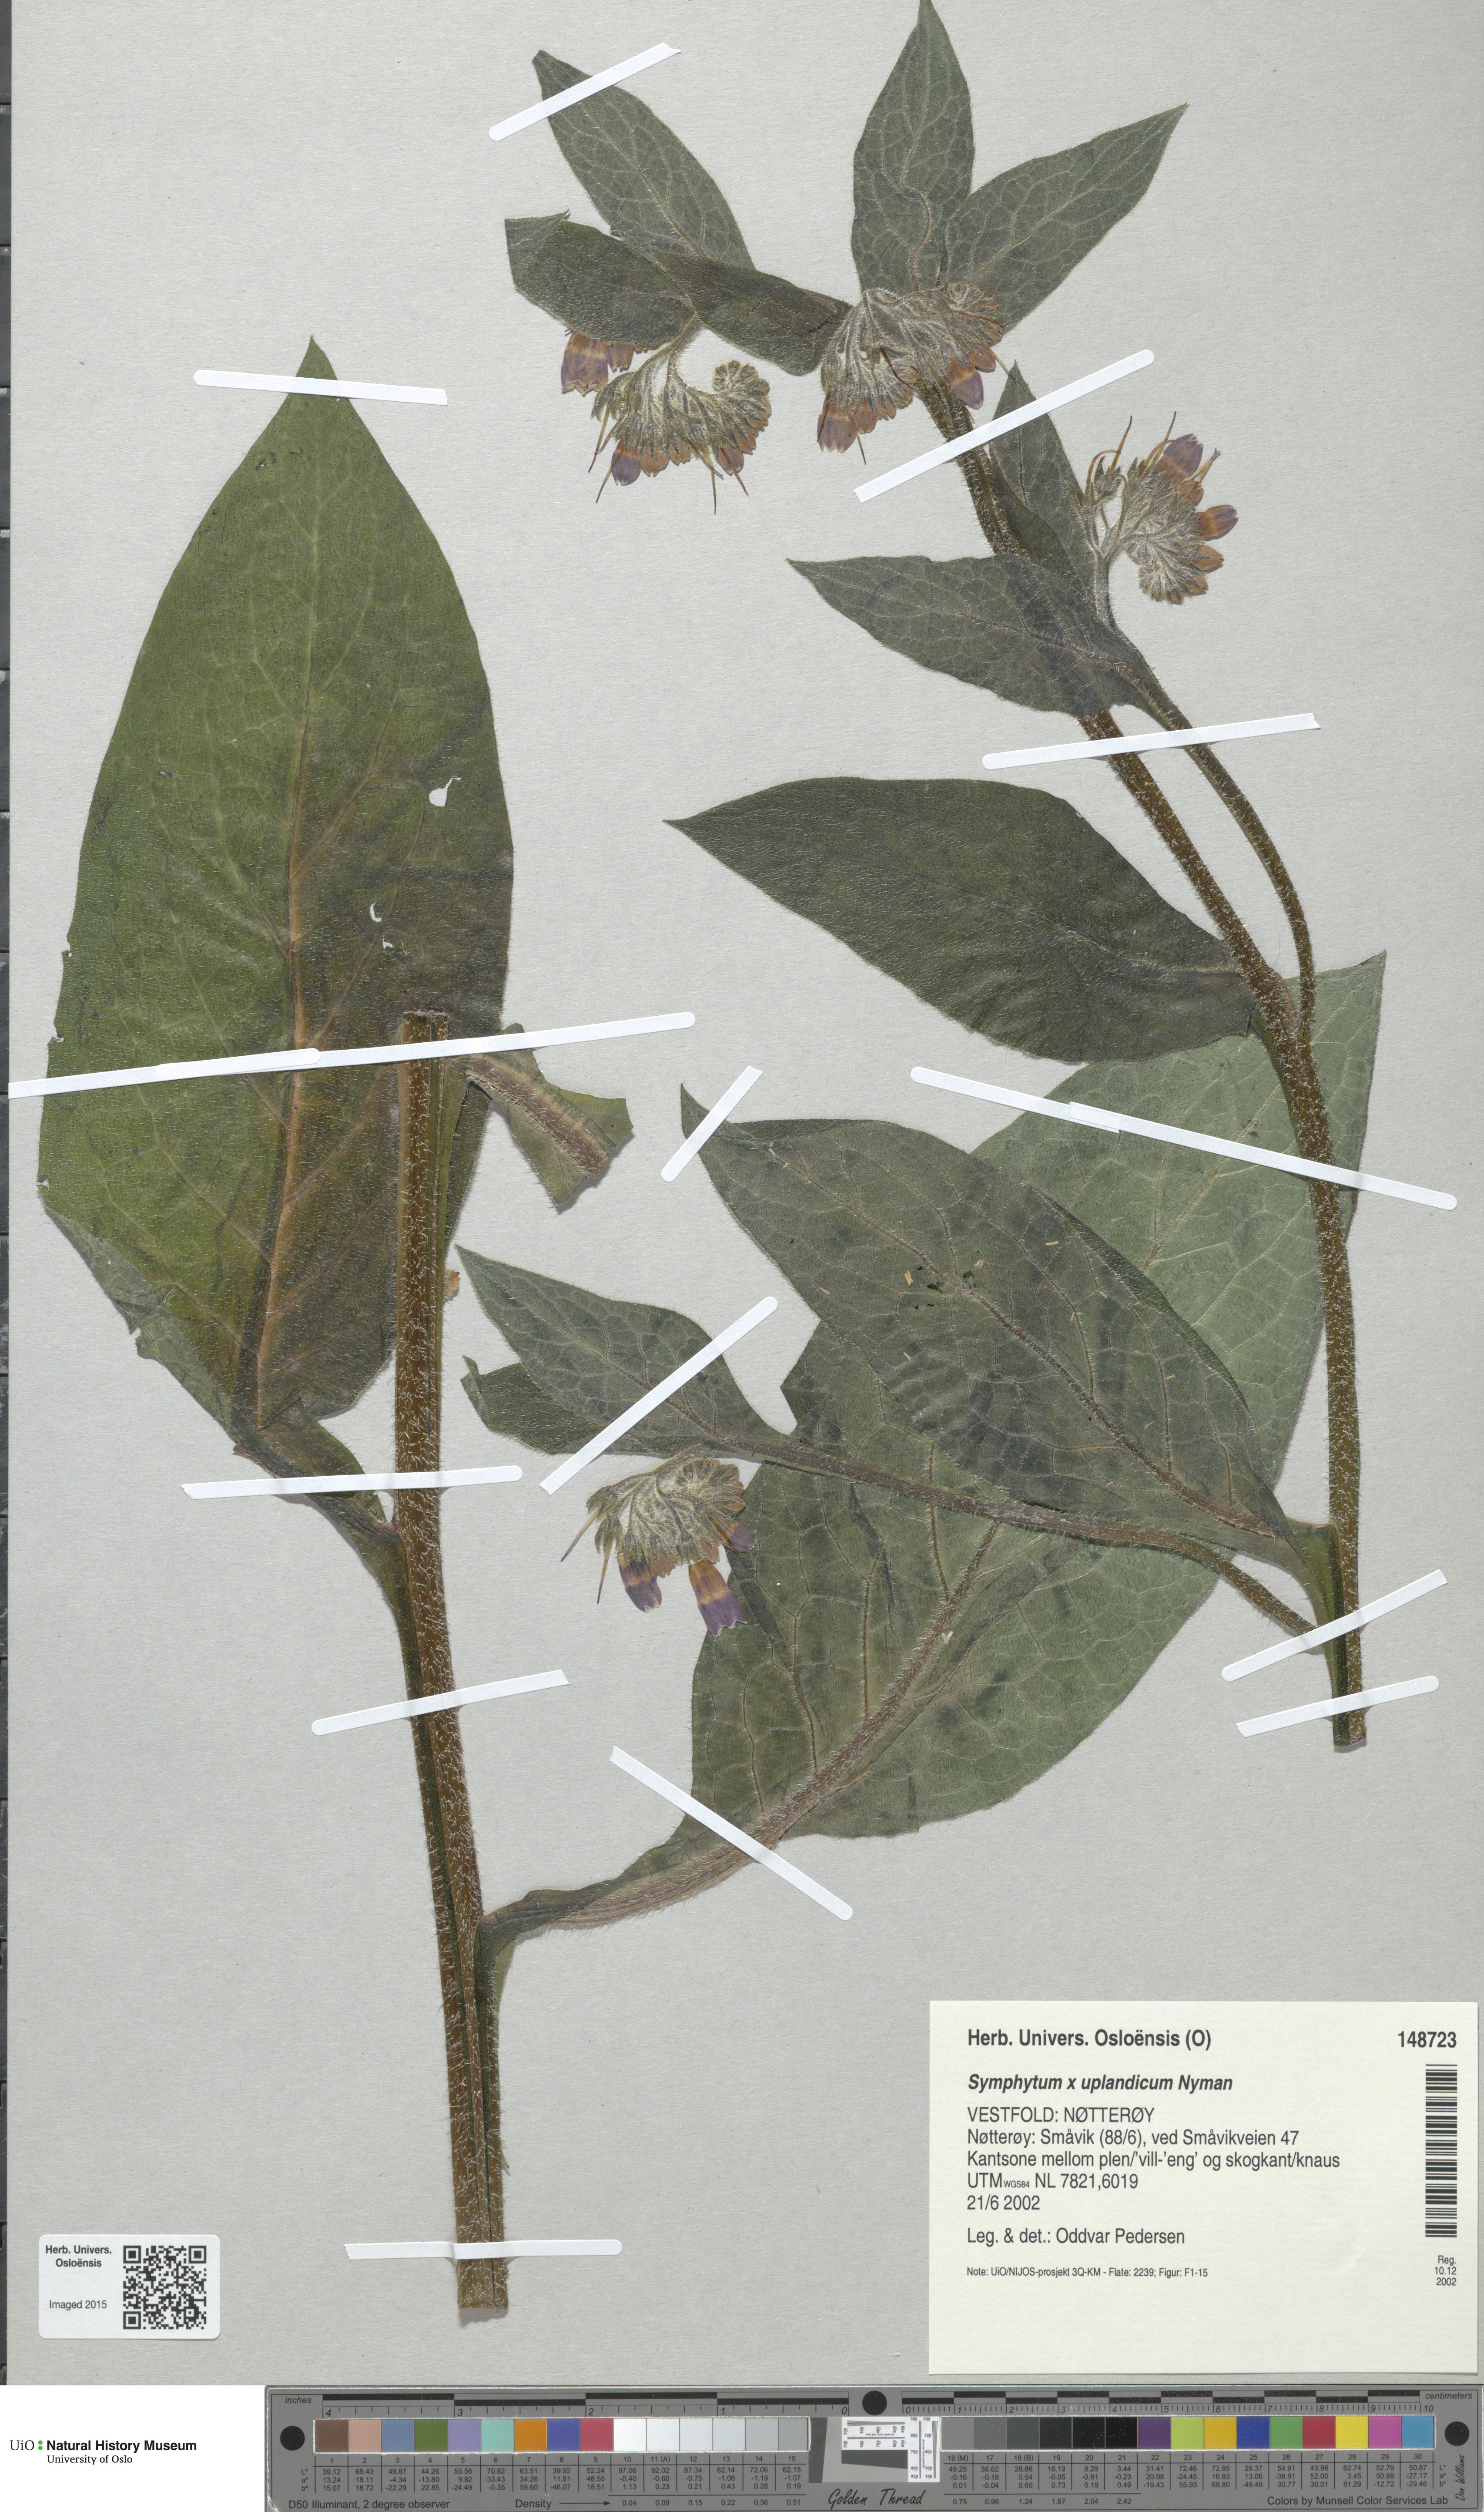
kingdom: Plantae
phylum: Tracheophyta
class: Magnoliopsida
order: Boraginales
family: Boraginaceae
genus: Symphytum
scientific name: Symphytum uplandicum
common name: Russian comfrey
